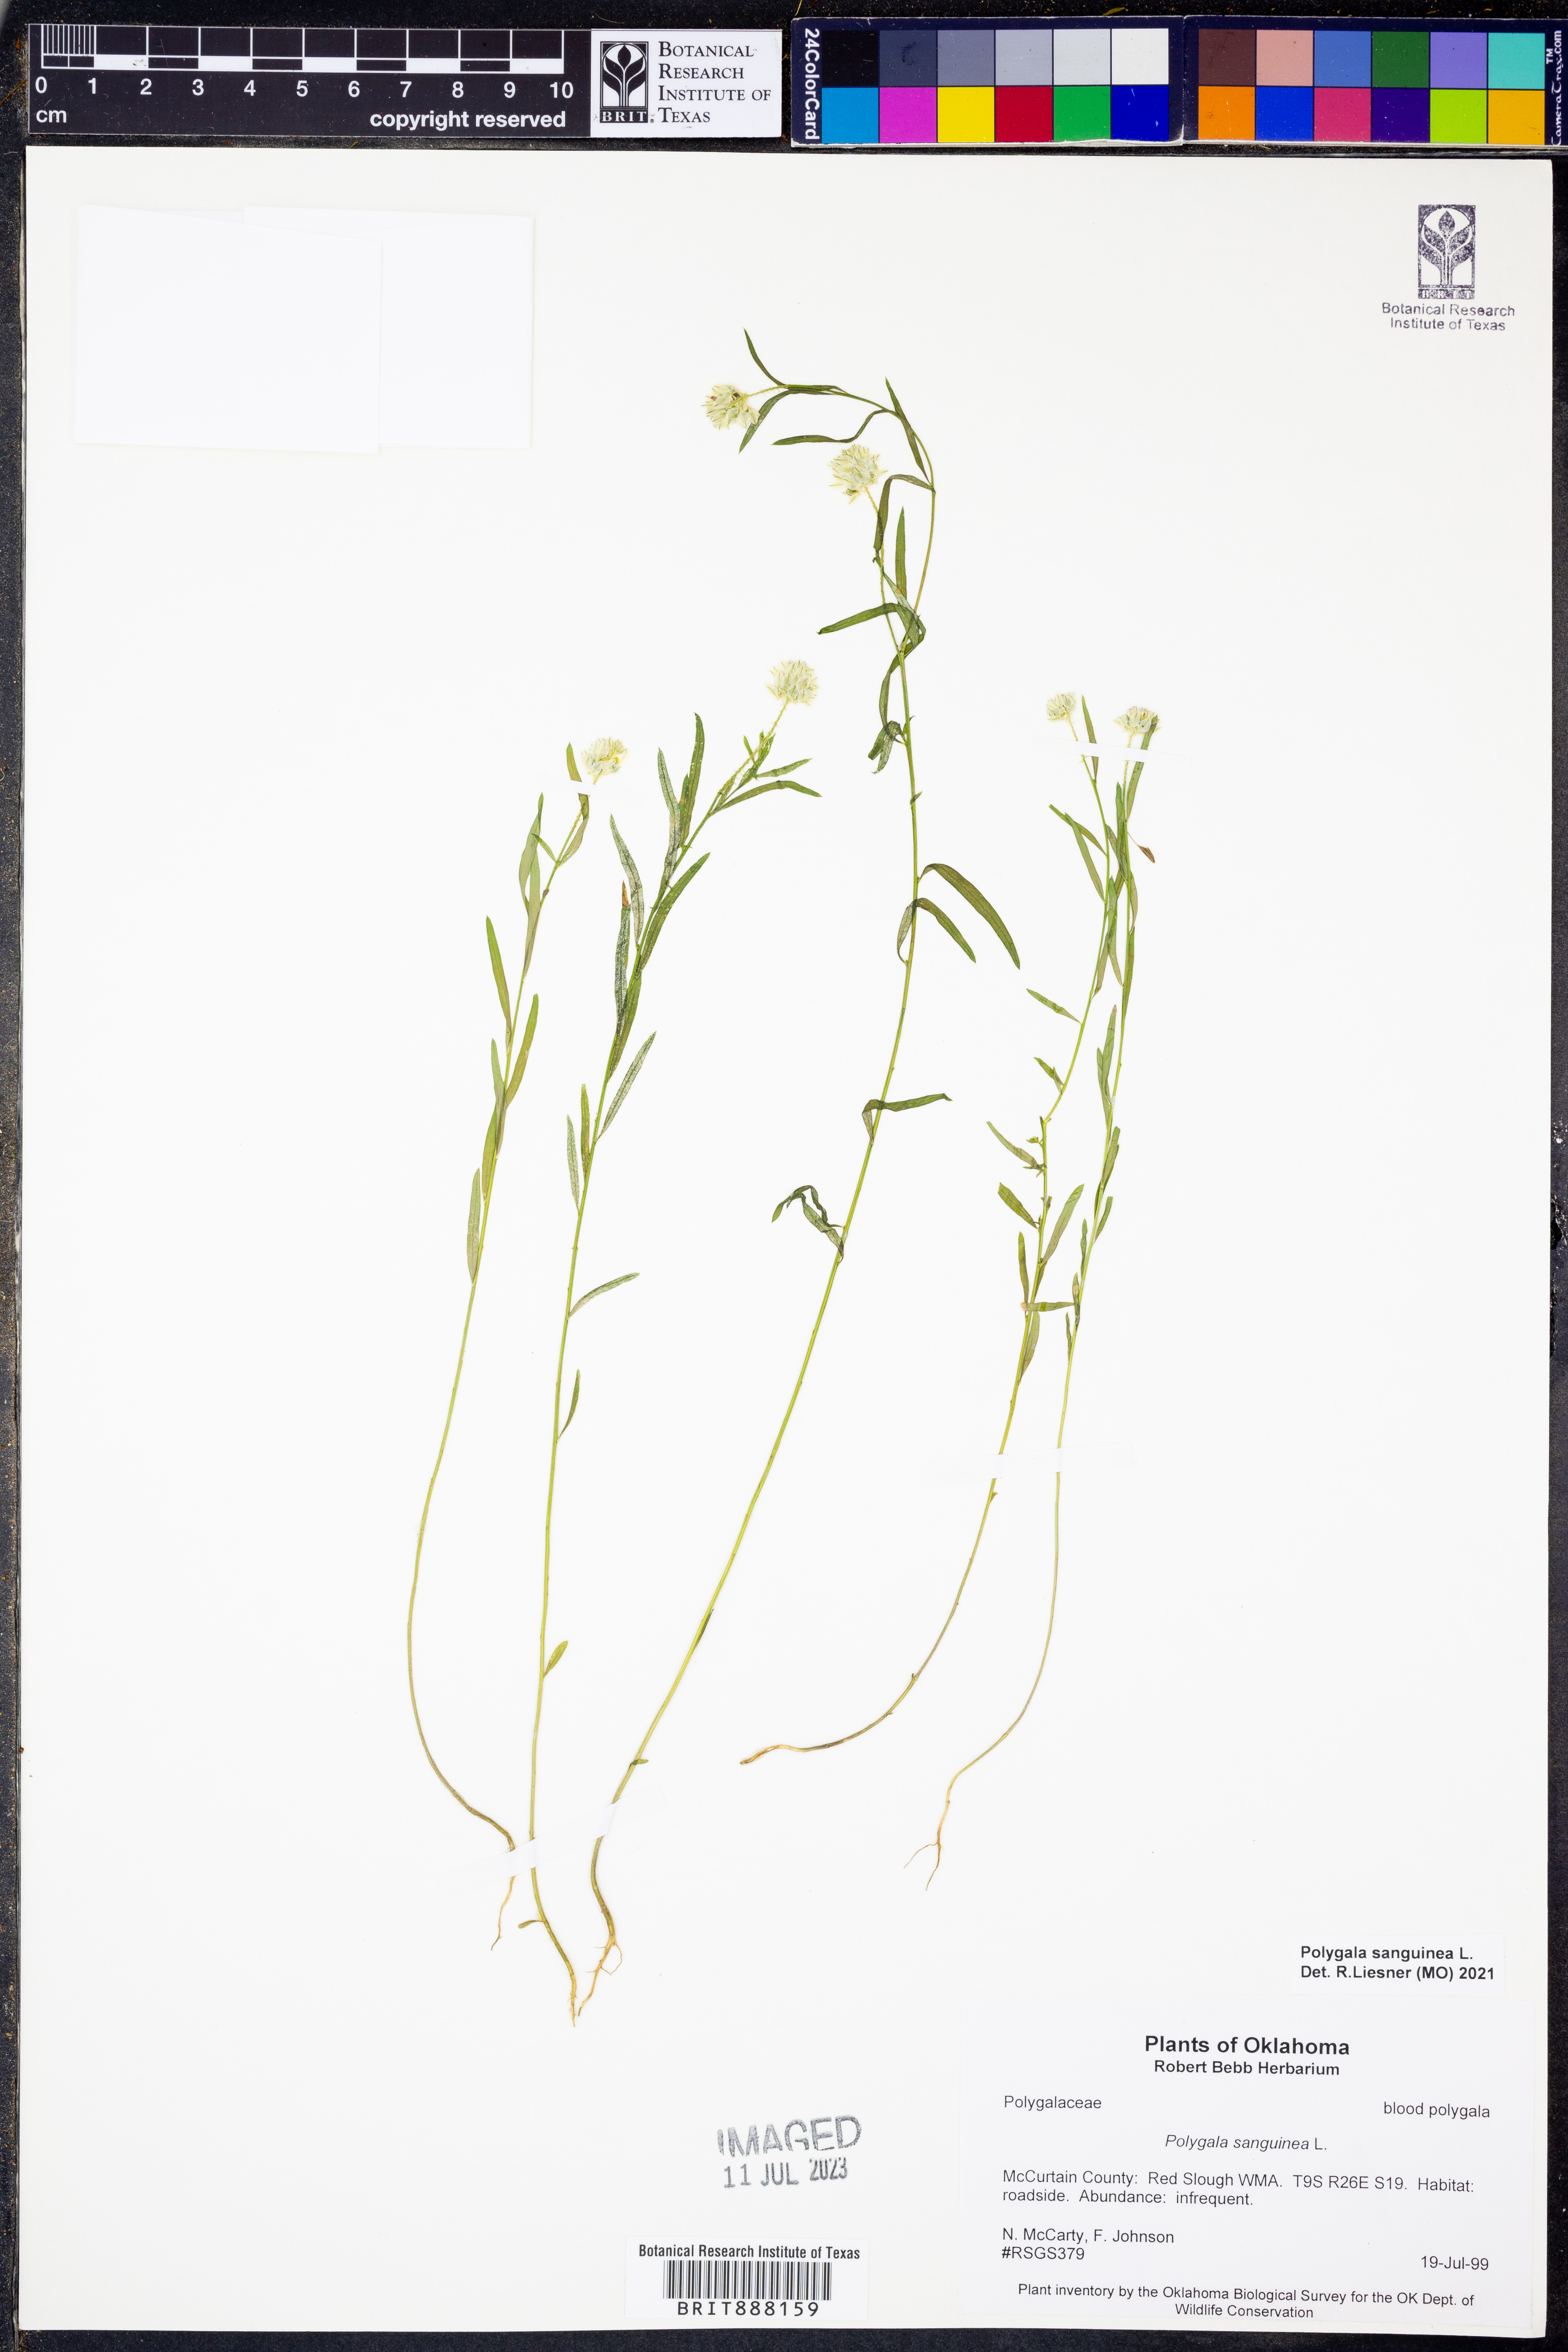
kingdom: Plantae
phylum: Tracheophyta
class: Magnoliopsida
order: Fabales
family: Polygalaceae
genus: Polygala
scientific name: Polygala sanguinea
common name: Blood milkwort
